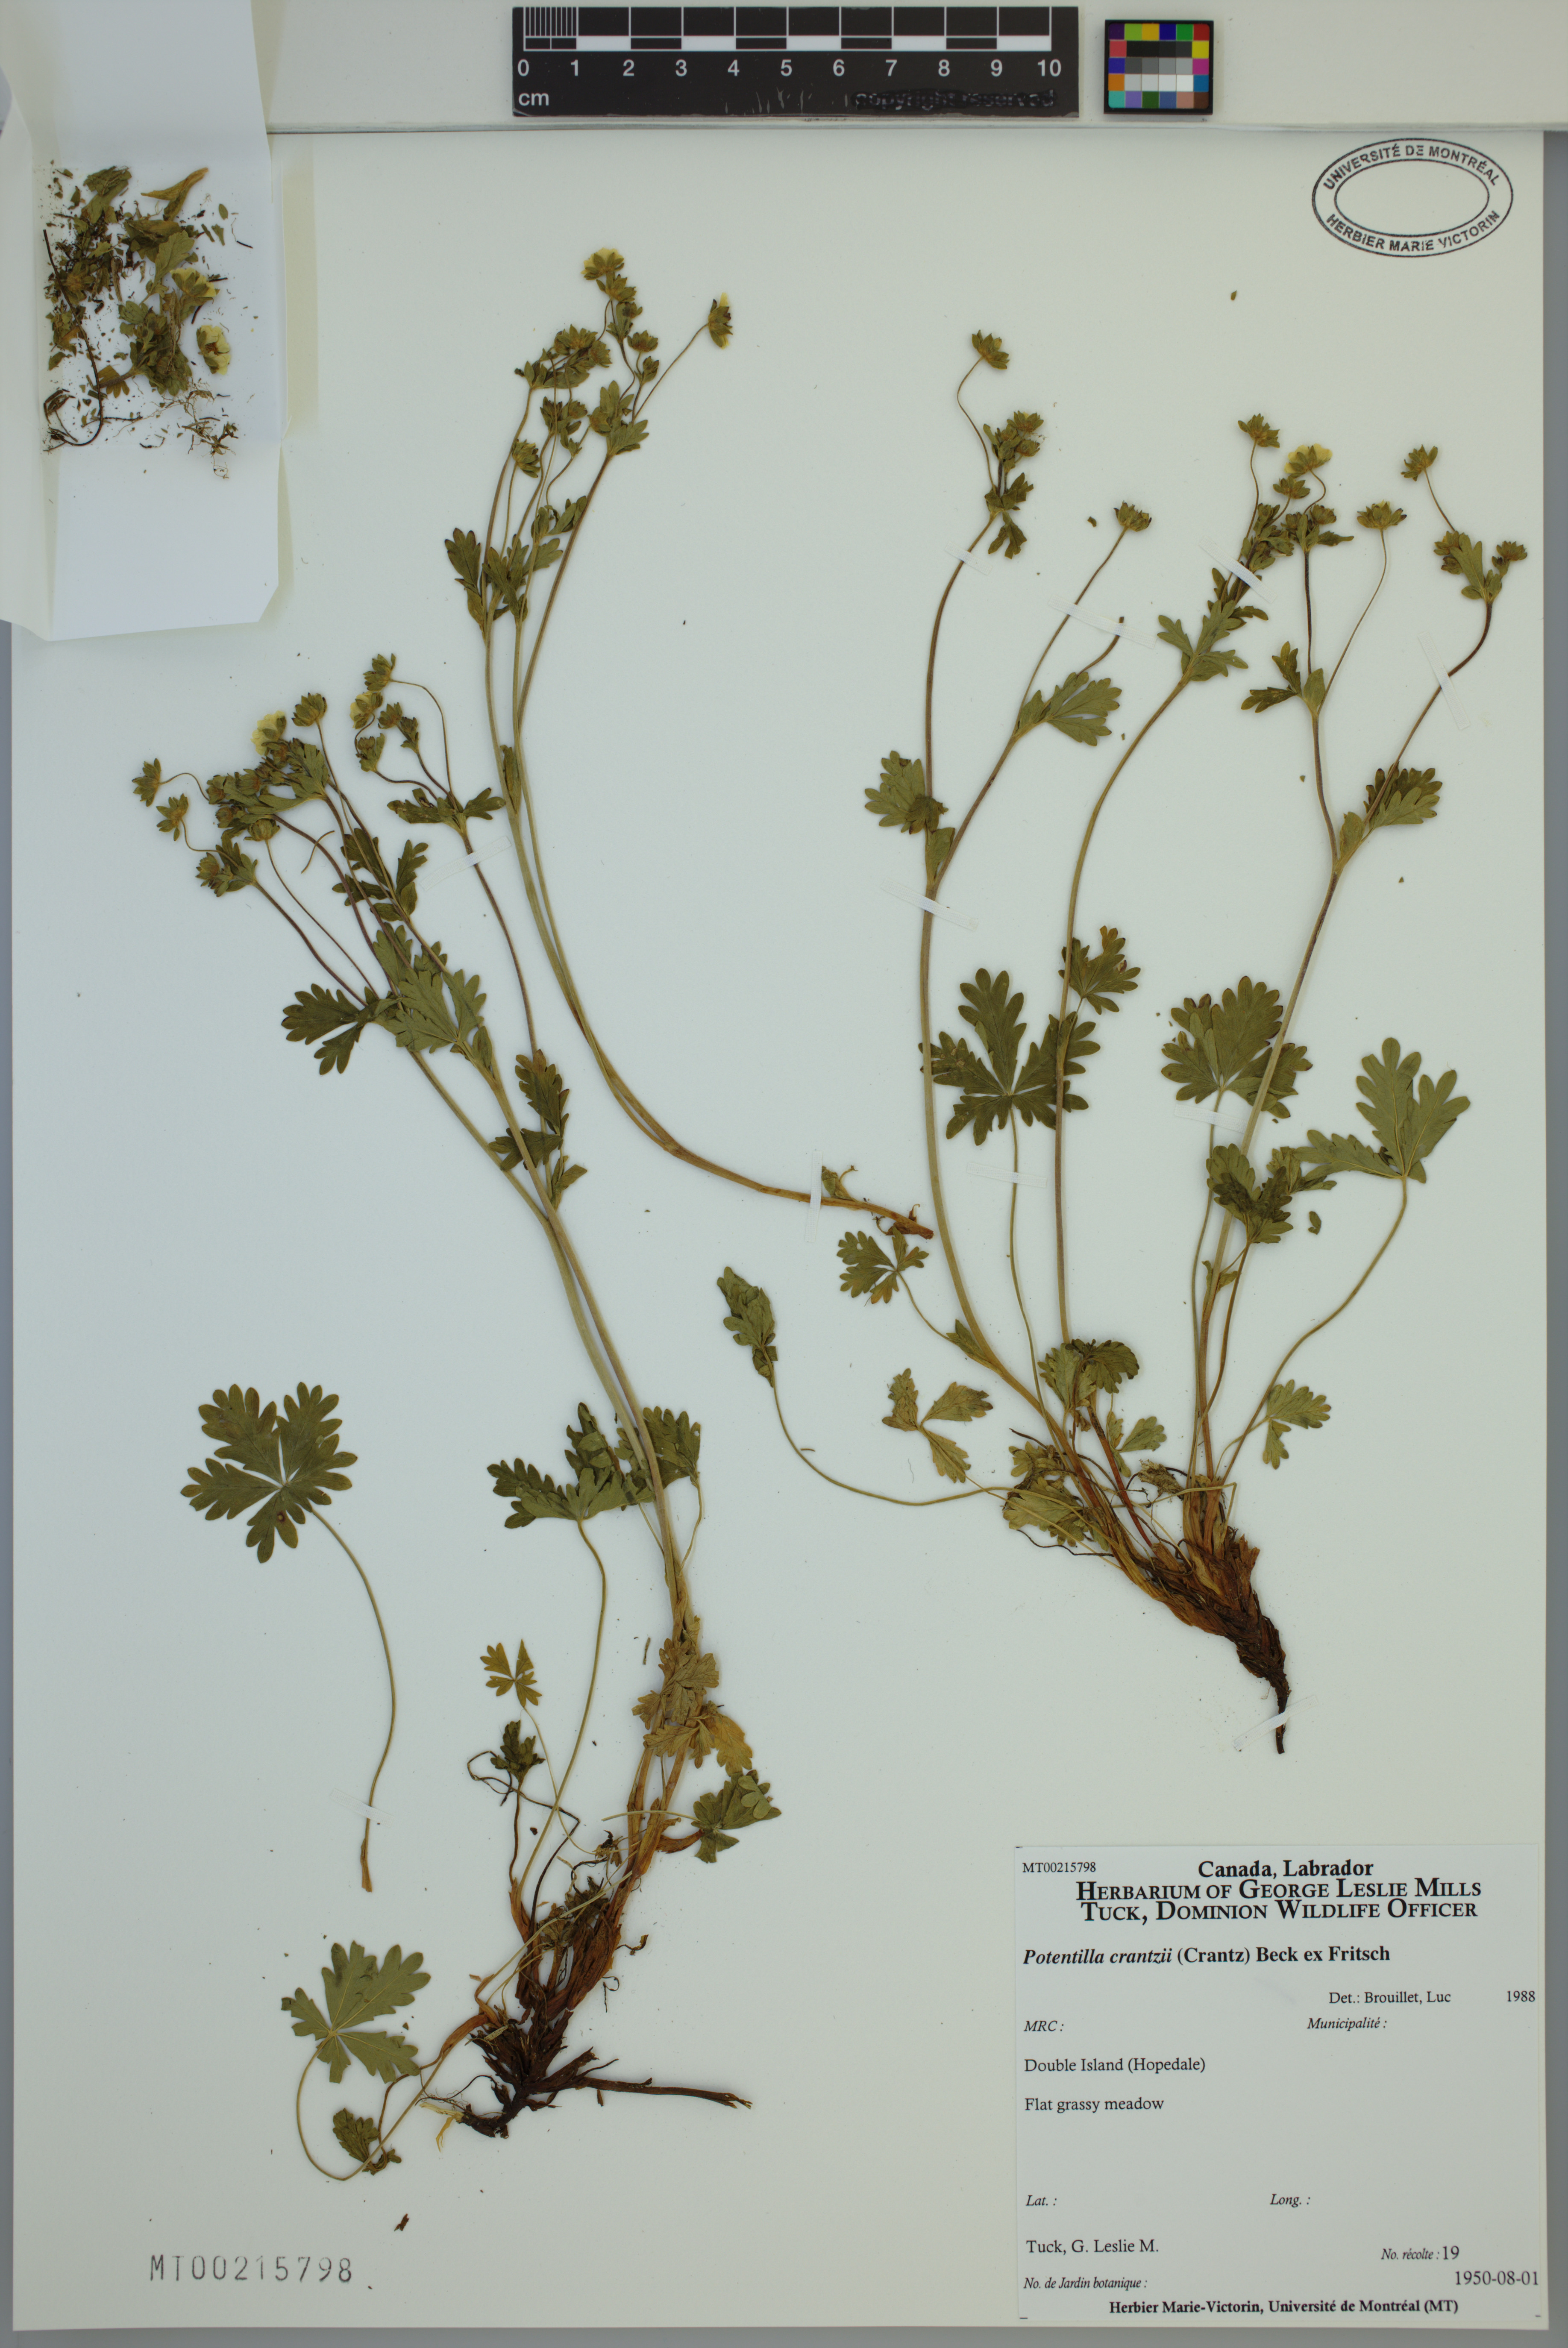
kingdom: Plantae
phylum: Tracheophyta
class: Magnoliopsida
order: Rosales
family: Rosaceae
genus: Potentilla
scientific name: Potentilla crantzii
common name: Alpine cinquefoil
